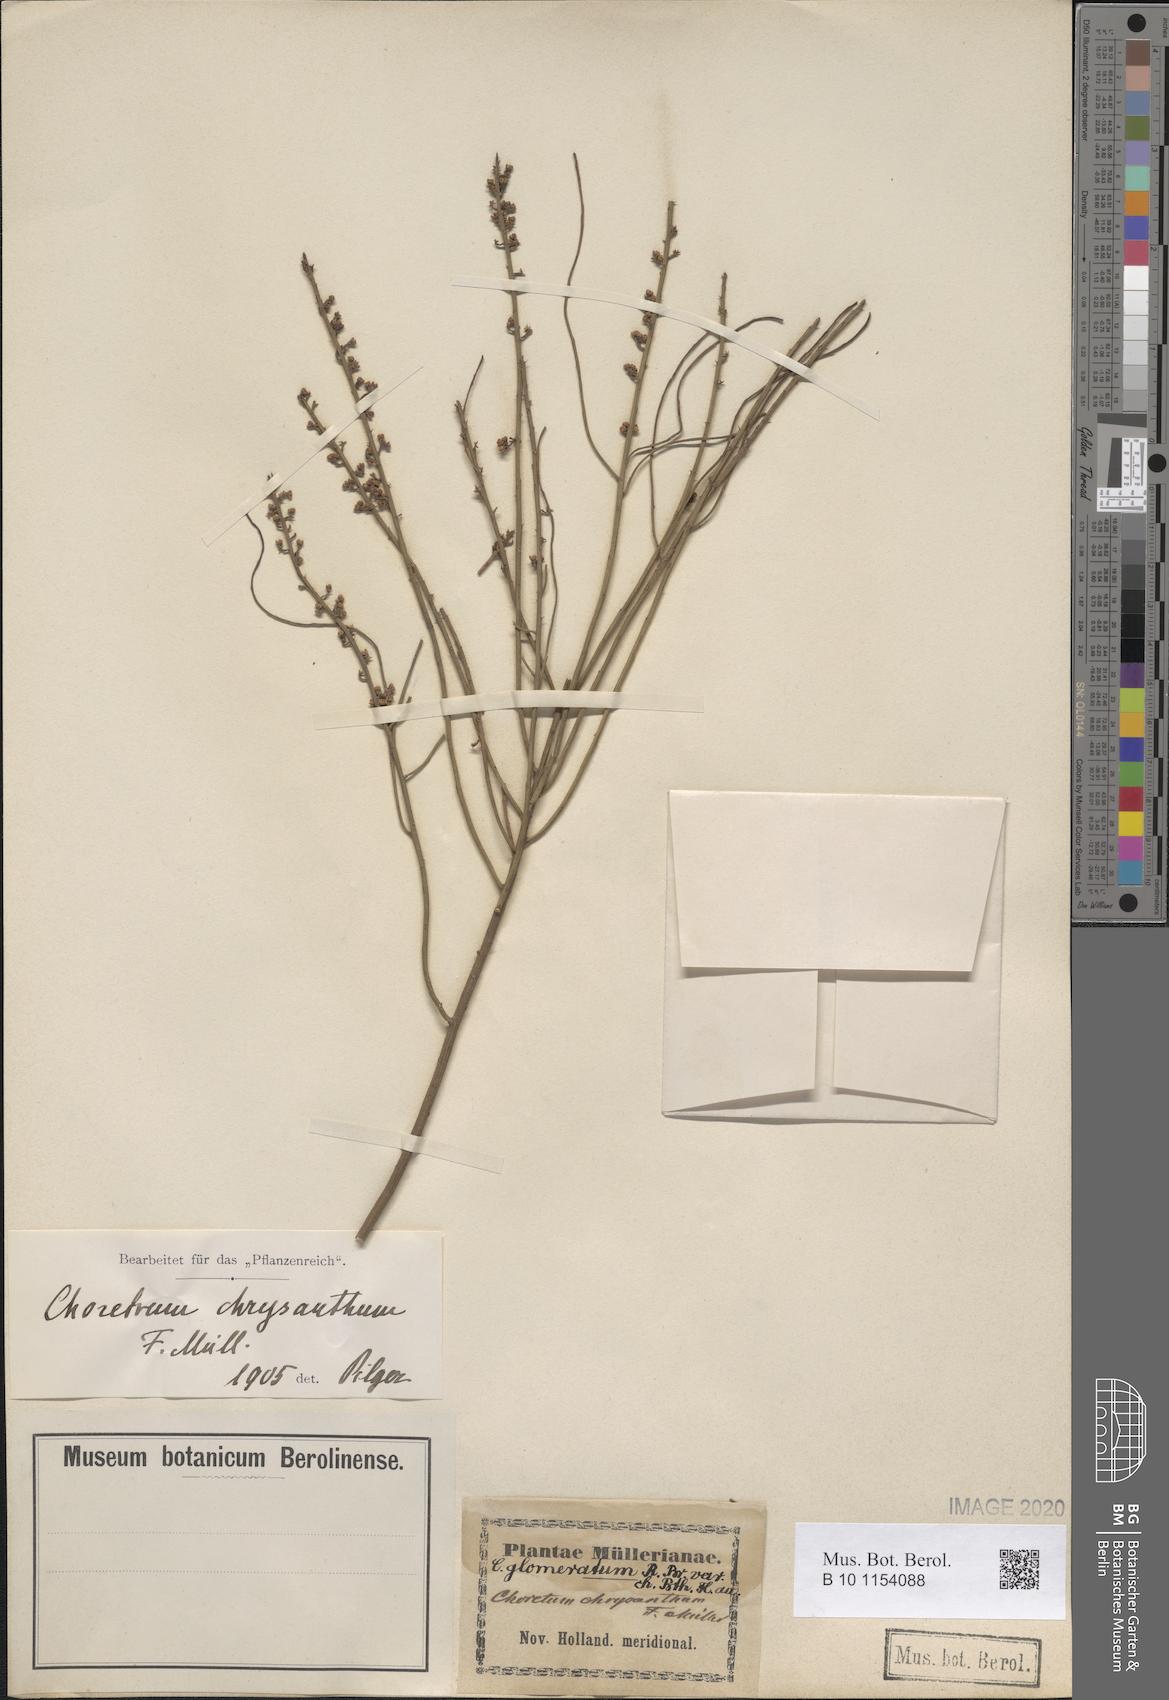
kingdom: Plantae
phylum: Tracheophyta
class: Magnoliopsida
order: Santalales
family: Amphorogynaceae
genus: Choretrum
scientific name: Choretrum glomeratum
